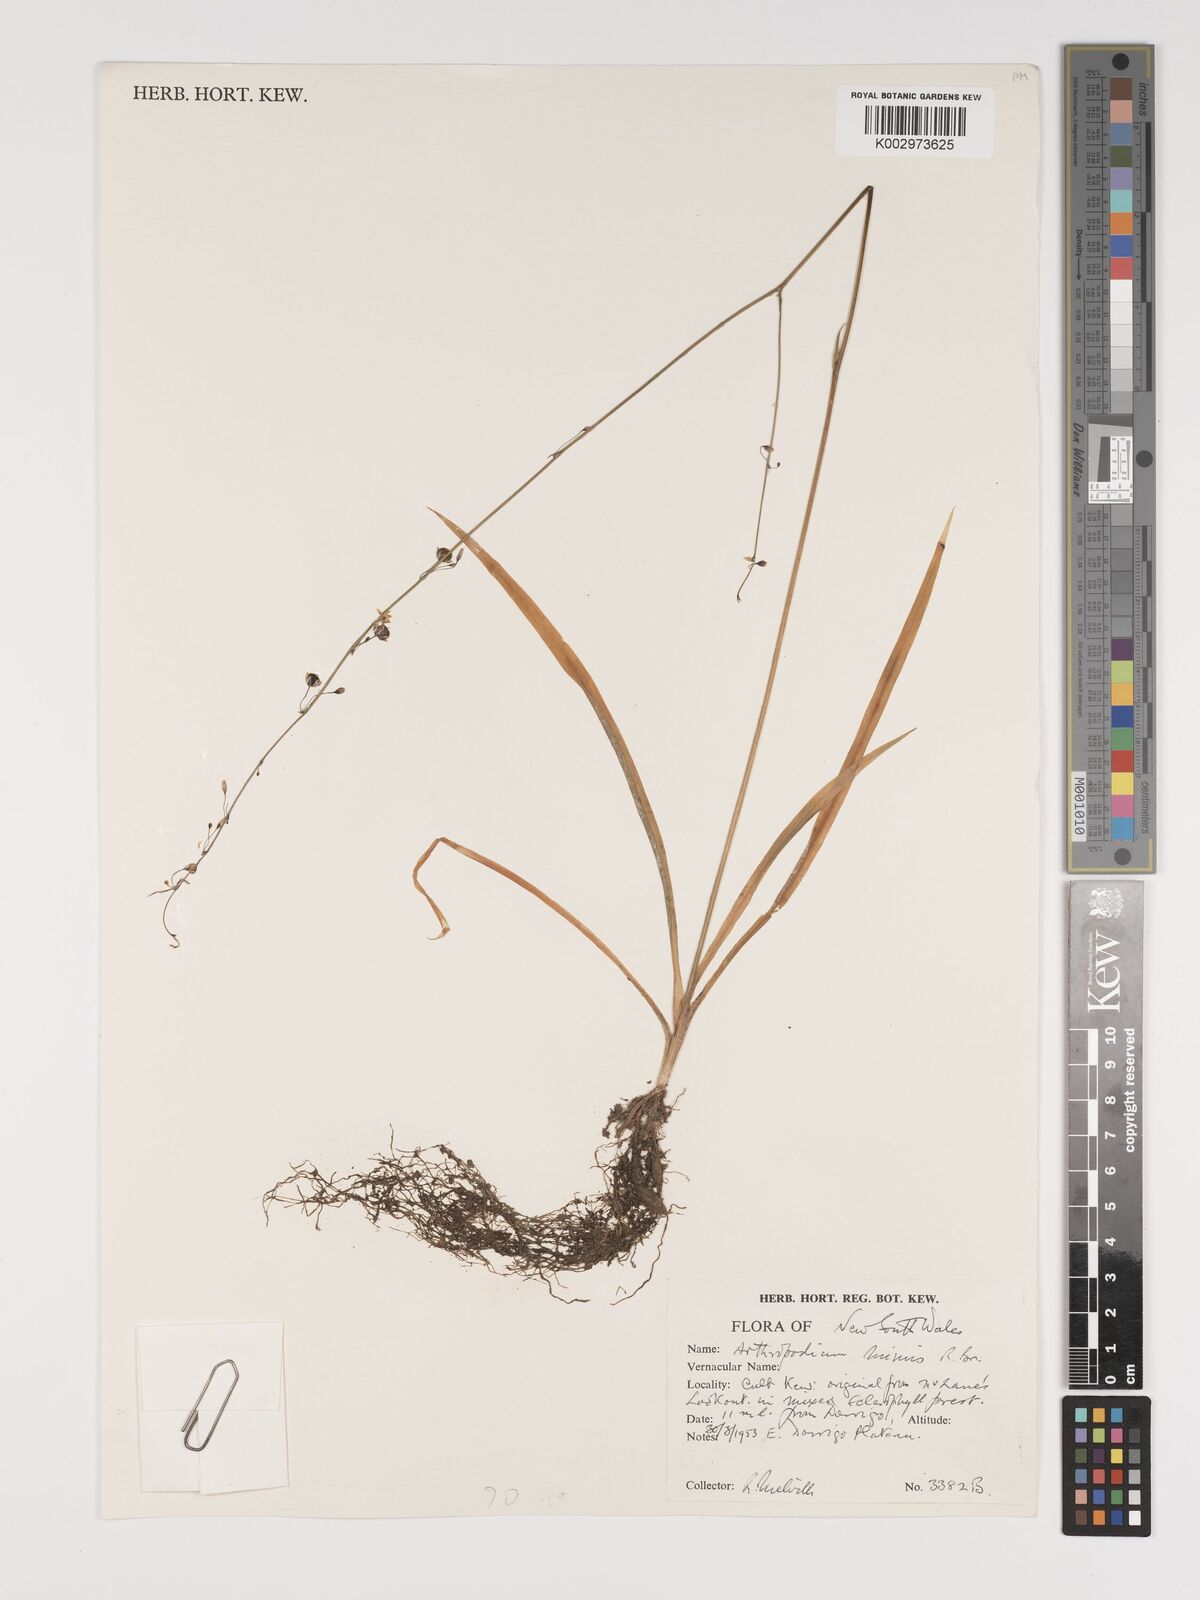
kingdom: Plantae
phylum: Tracheophyta
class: Liliopsida
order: Asparagales
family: Asparagaceae
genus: Arthropodium
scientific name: Arthropodium milleflorum
